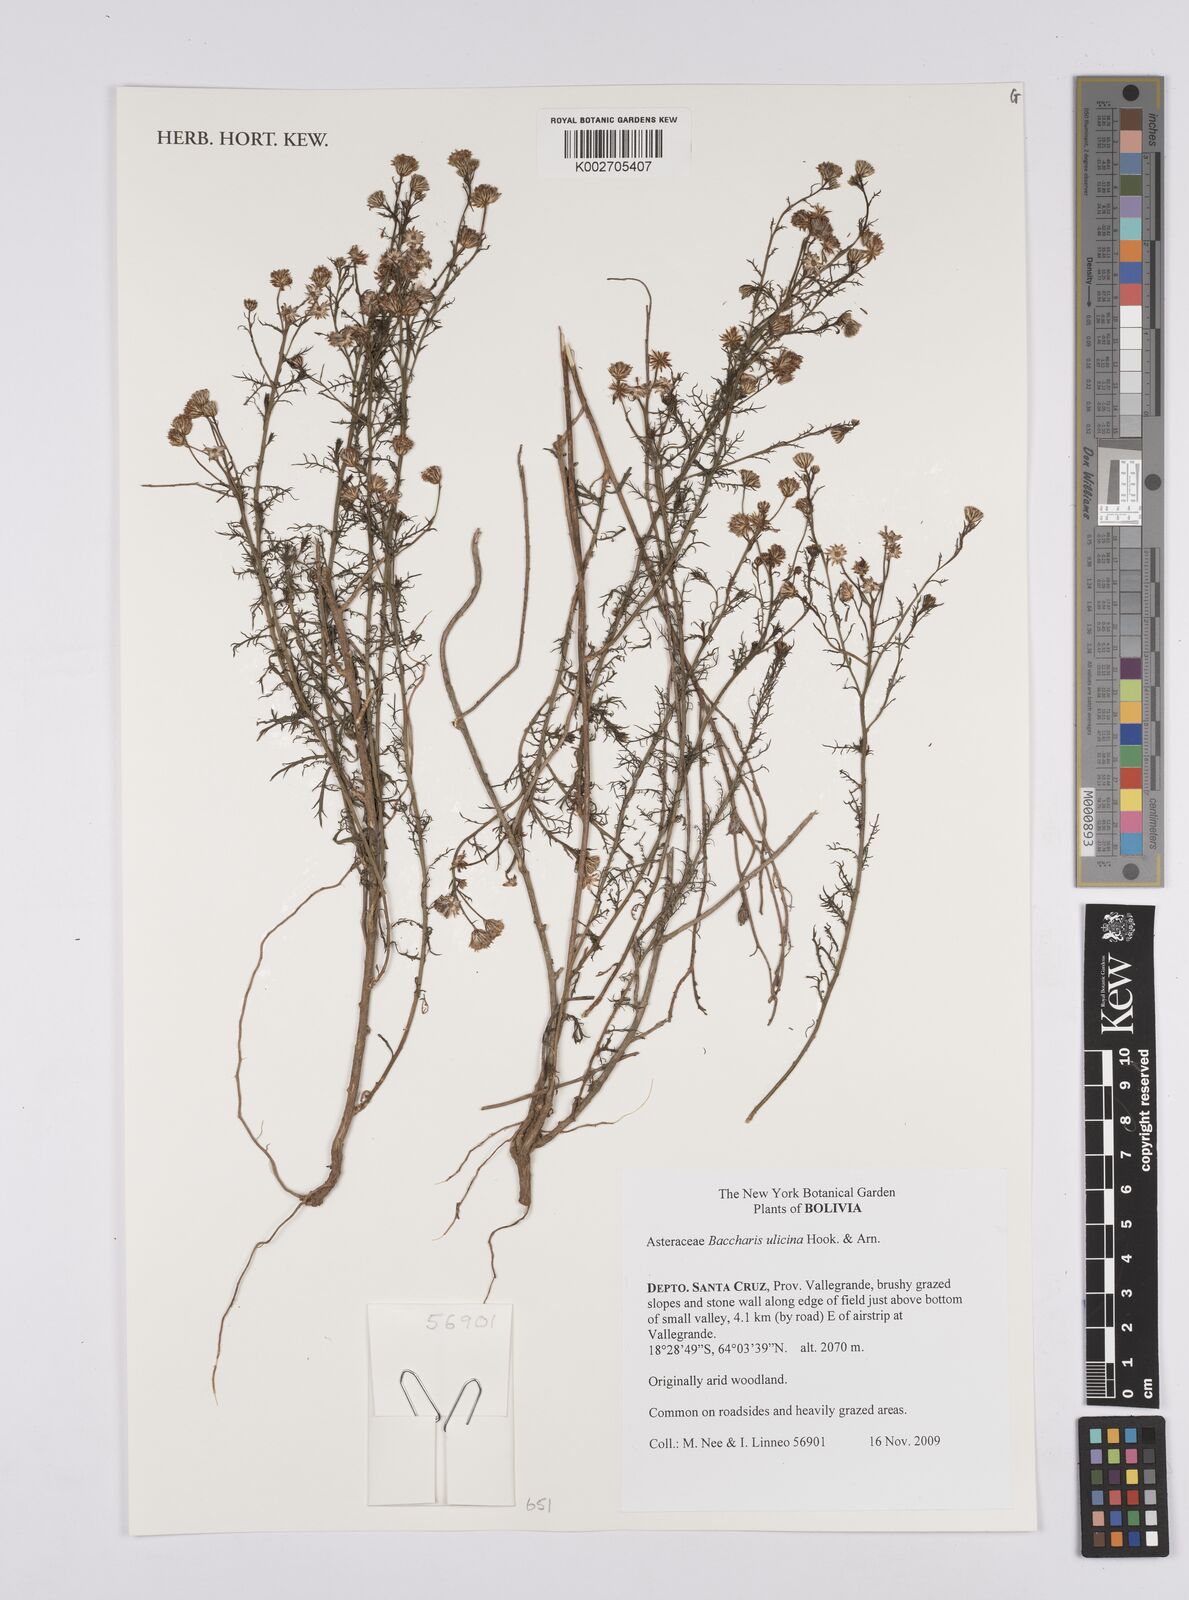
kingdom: Plantae
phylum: Tracheophyta
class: Magnoliopsida
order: Asterales
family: Asteraceae
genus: Baccharis
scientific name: Baccharis ulicina
